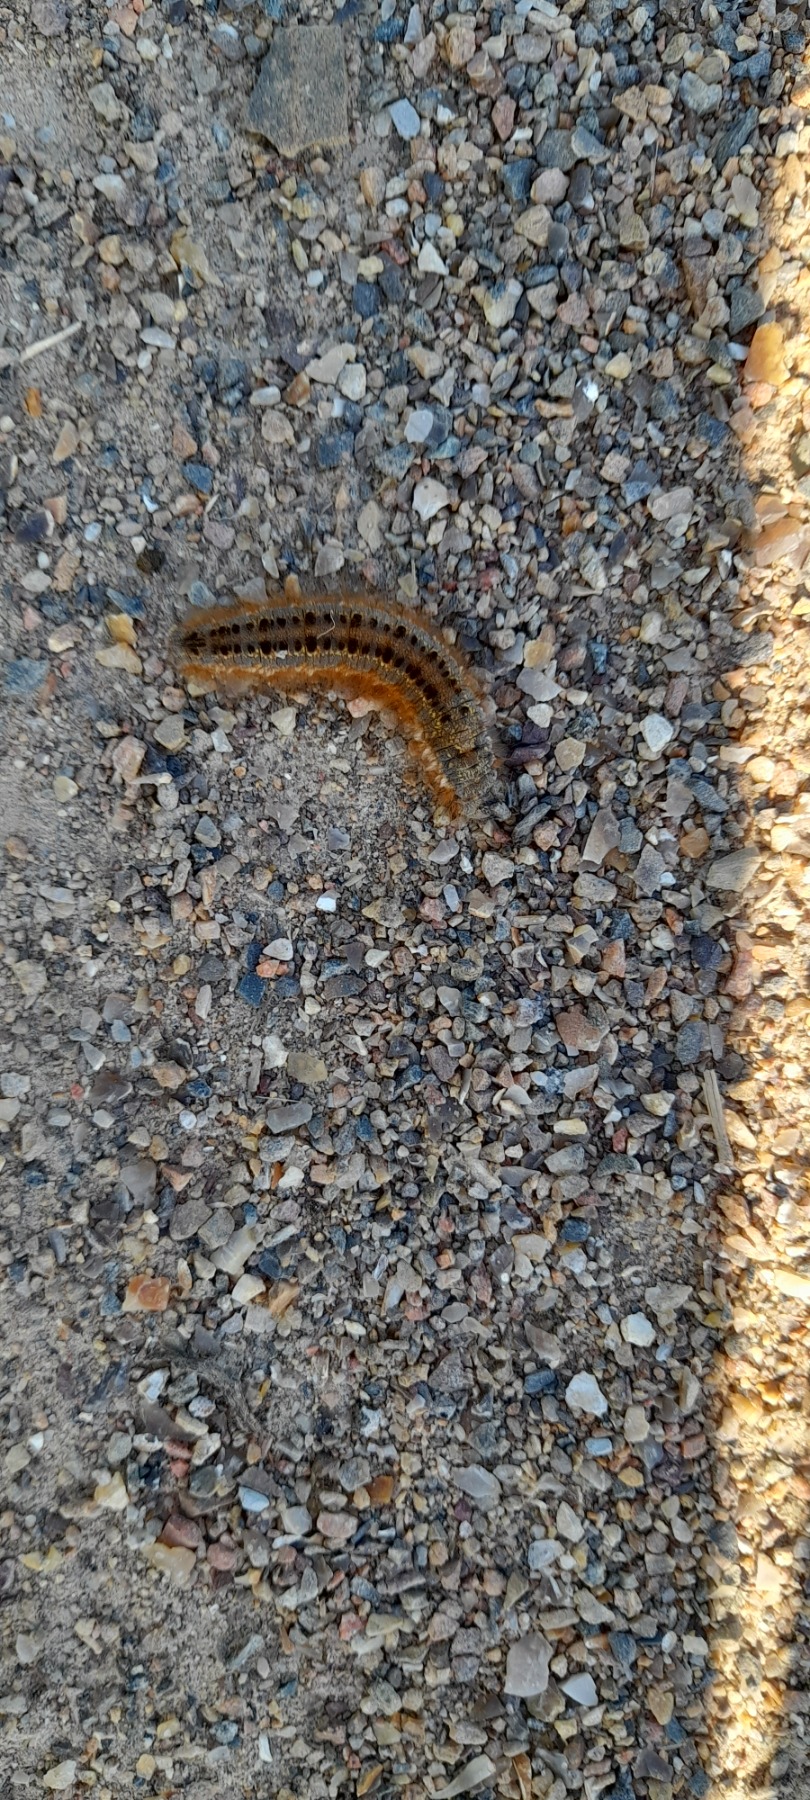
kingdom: Animalia
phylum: Arthropoda
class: Insecta
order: Lepidoptera
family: Lasiocampidae
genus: Euthrix
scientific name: Euthrix potatoria
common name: Græsspinder
